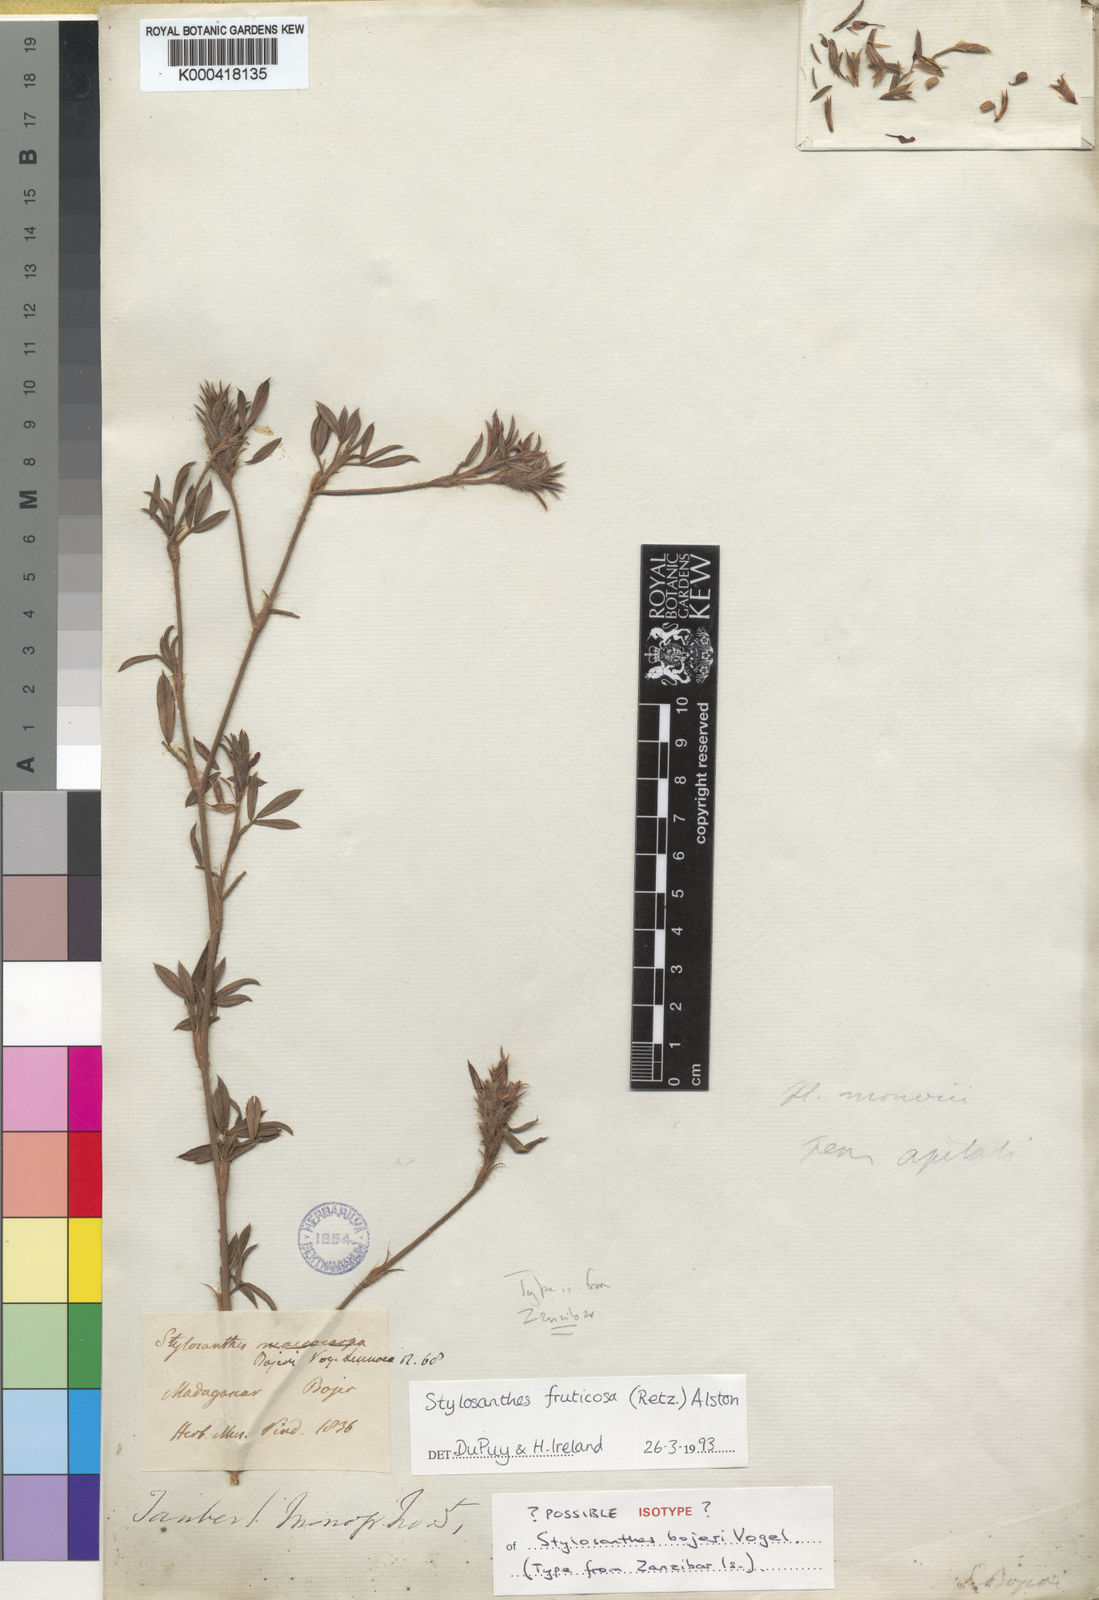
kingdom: Plantae
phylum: Tracheophyta
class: Magnoliopsida
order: Fabales
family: Fabaceae
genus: Stylosanthes
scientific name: Stylosanthes fruticosa
